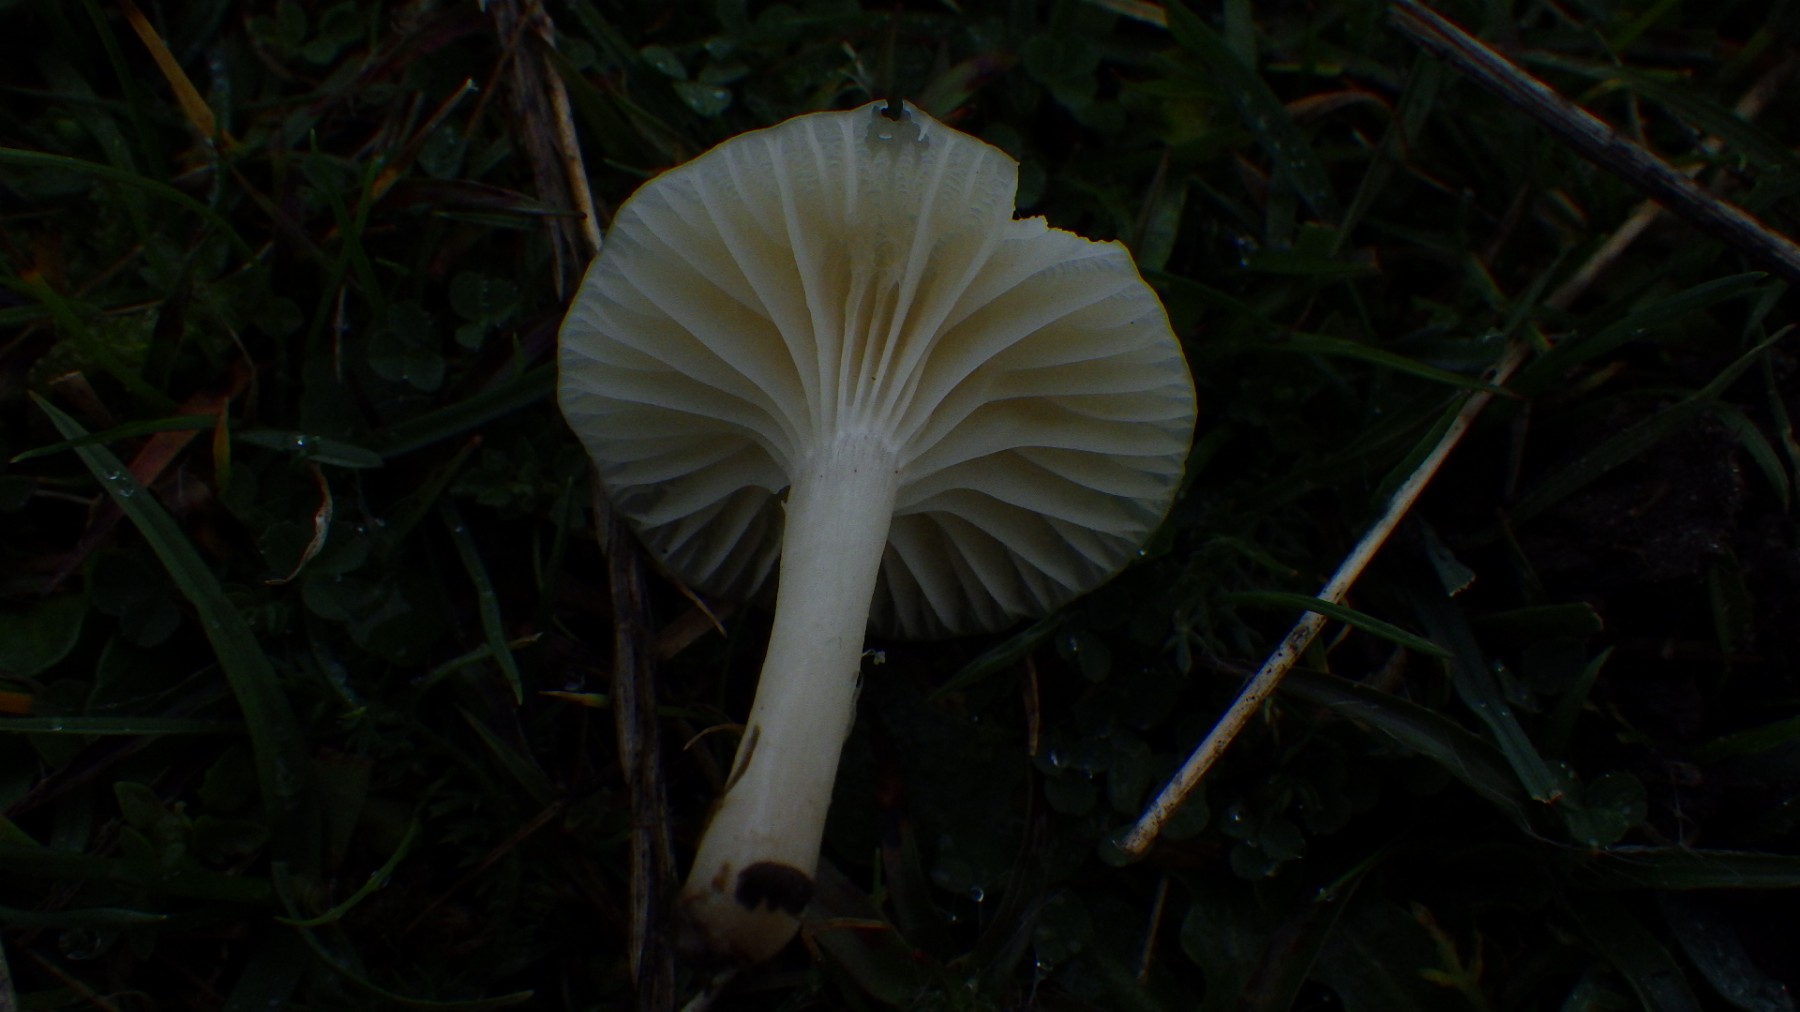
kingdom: Fungi
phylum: Basidiomycota
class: Agaricomycetes
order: Agaricales
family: Hygrophoraceae
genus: Cuphophyllus
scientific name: Cuphophyllus
